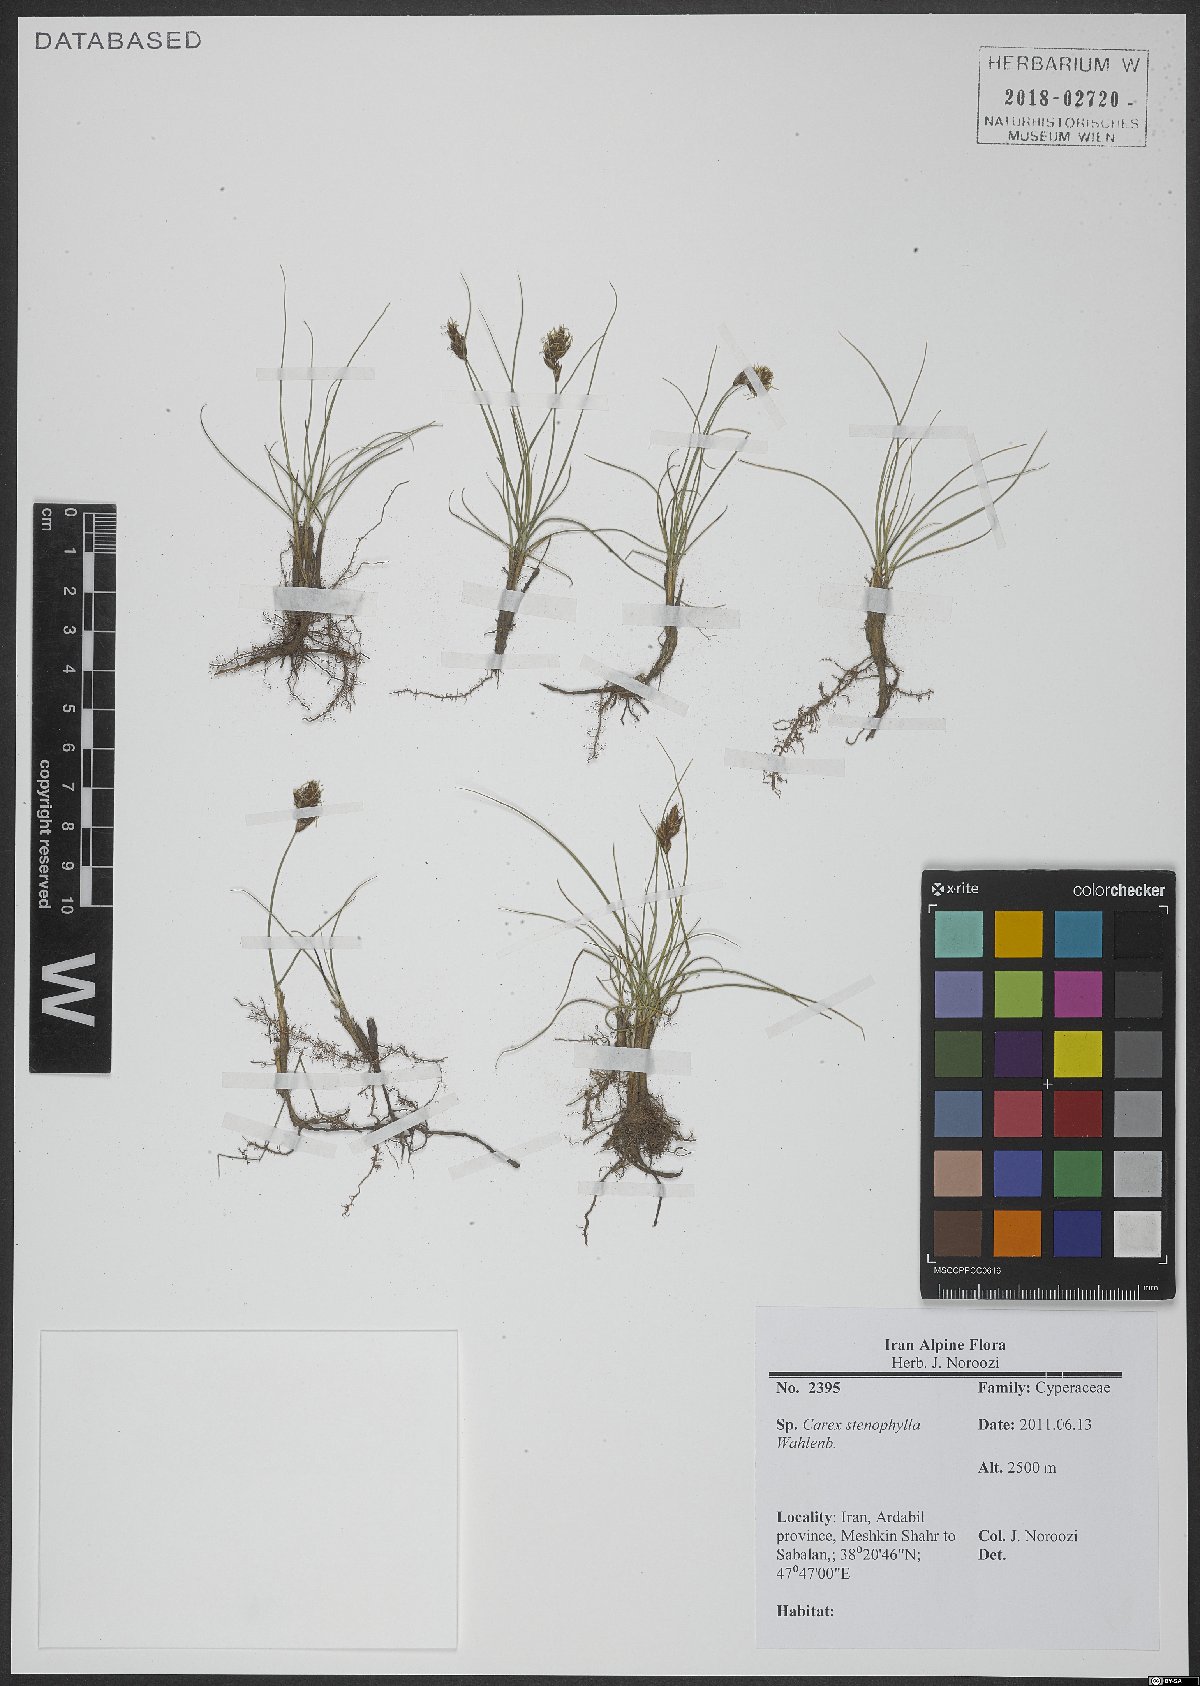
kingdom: Plantae
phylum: Tracheophyta
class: Liliopsida
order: Poales
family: Cyperaceae
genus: Carex
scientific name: Carex stenophylla
